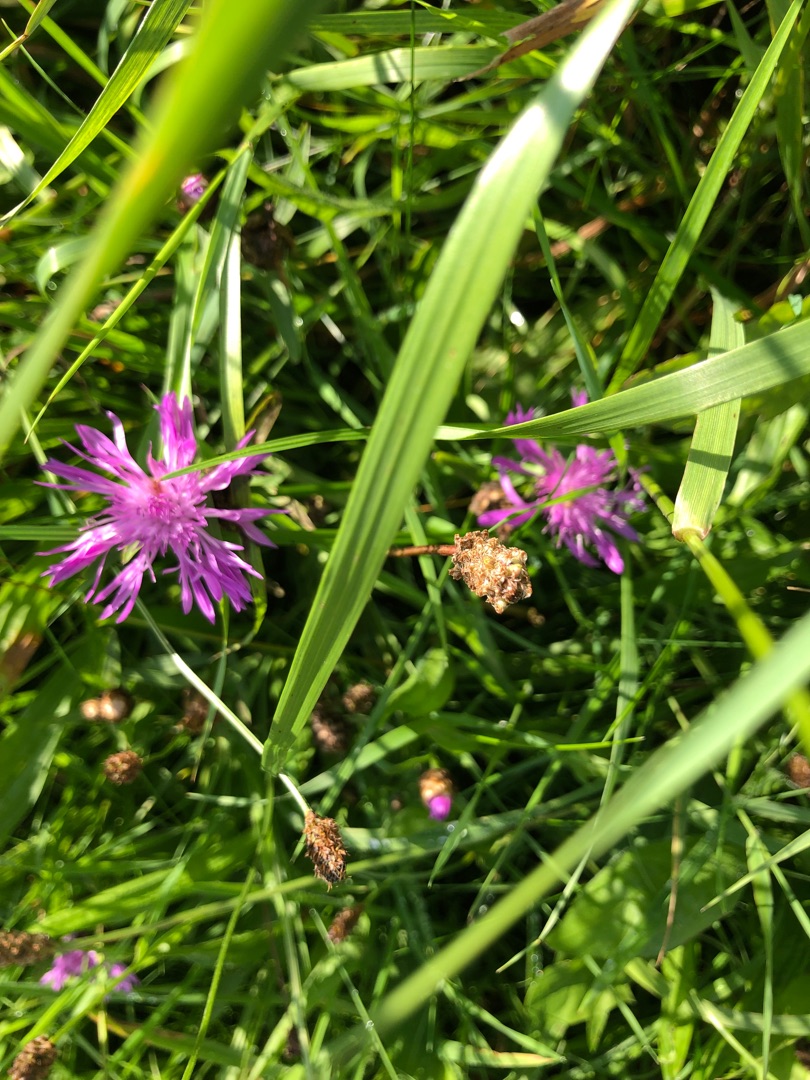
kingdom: Plantae
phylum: Tracheophyta
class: Magnoliopsida
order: Asterales
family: Asteraceae
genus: Centaurea
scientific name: Centaurea jacea
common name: Almindelig knopurt
